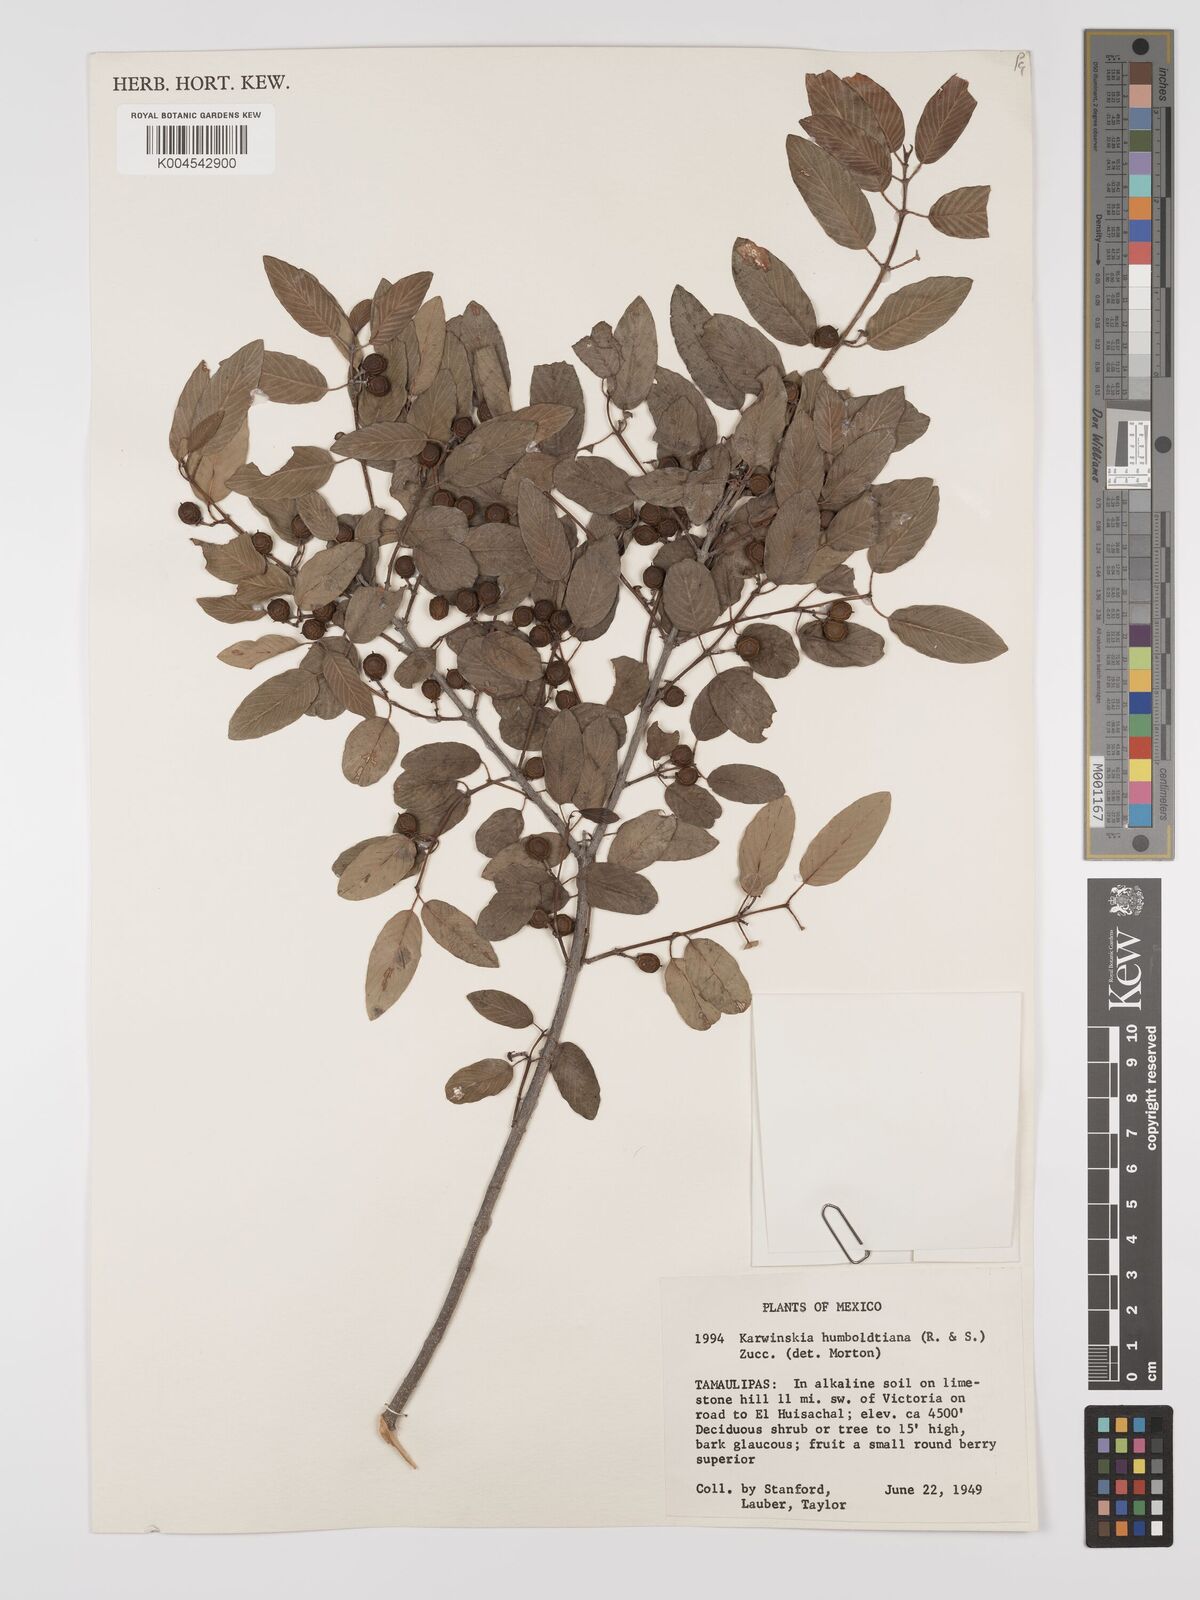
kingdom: Plantae
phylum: Tracheophyta
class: Magnoliopsida
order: Rosales
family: Rhamnaceae
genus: Karwinskia
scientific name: Karwinskia humboldtiana
